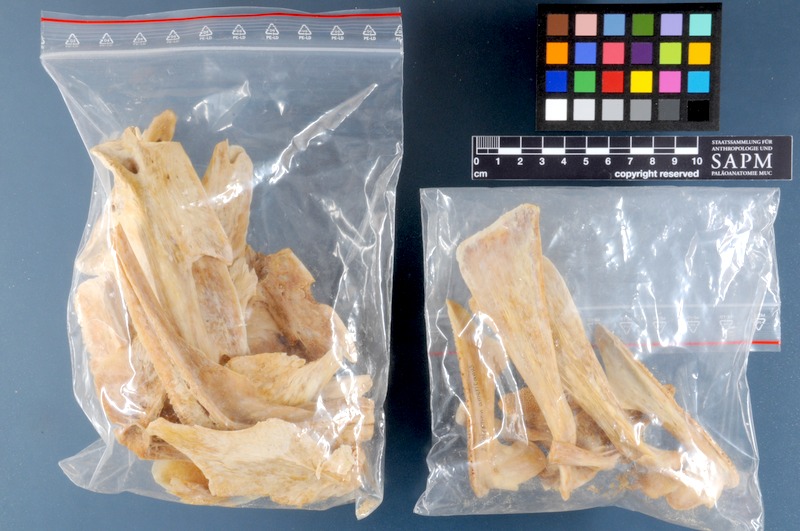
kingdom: Animalia
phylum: Chordata
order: Perciformes
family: Polyprionidae
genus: Polyprion
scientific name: Polyprion americanus
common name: Wreckfish
